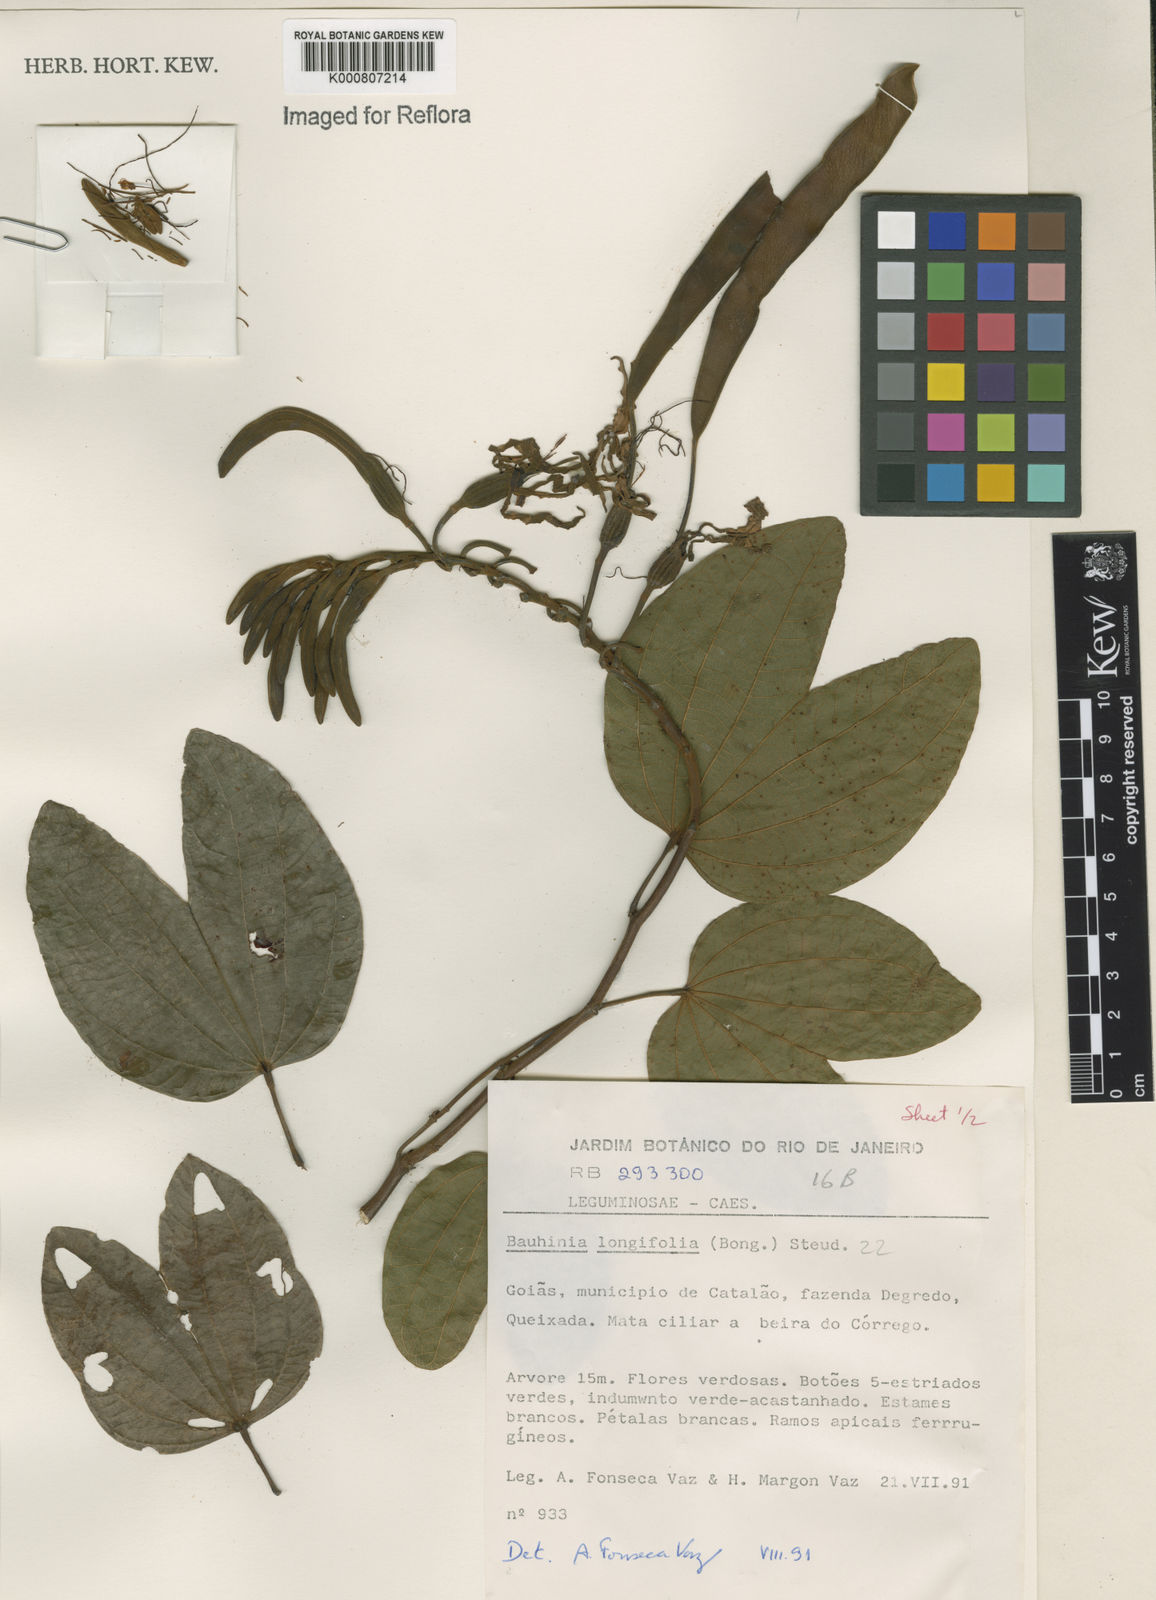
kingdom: Plantae
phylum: Tracheophyta
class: Magnoliopsida
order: Fabales
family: Fabaceae
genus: Bauhinia
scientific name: Bauhinia longifolia
